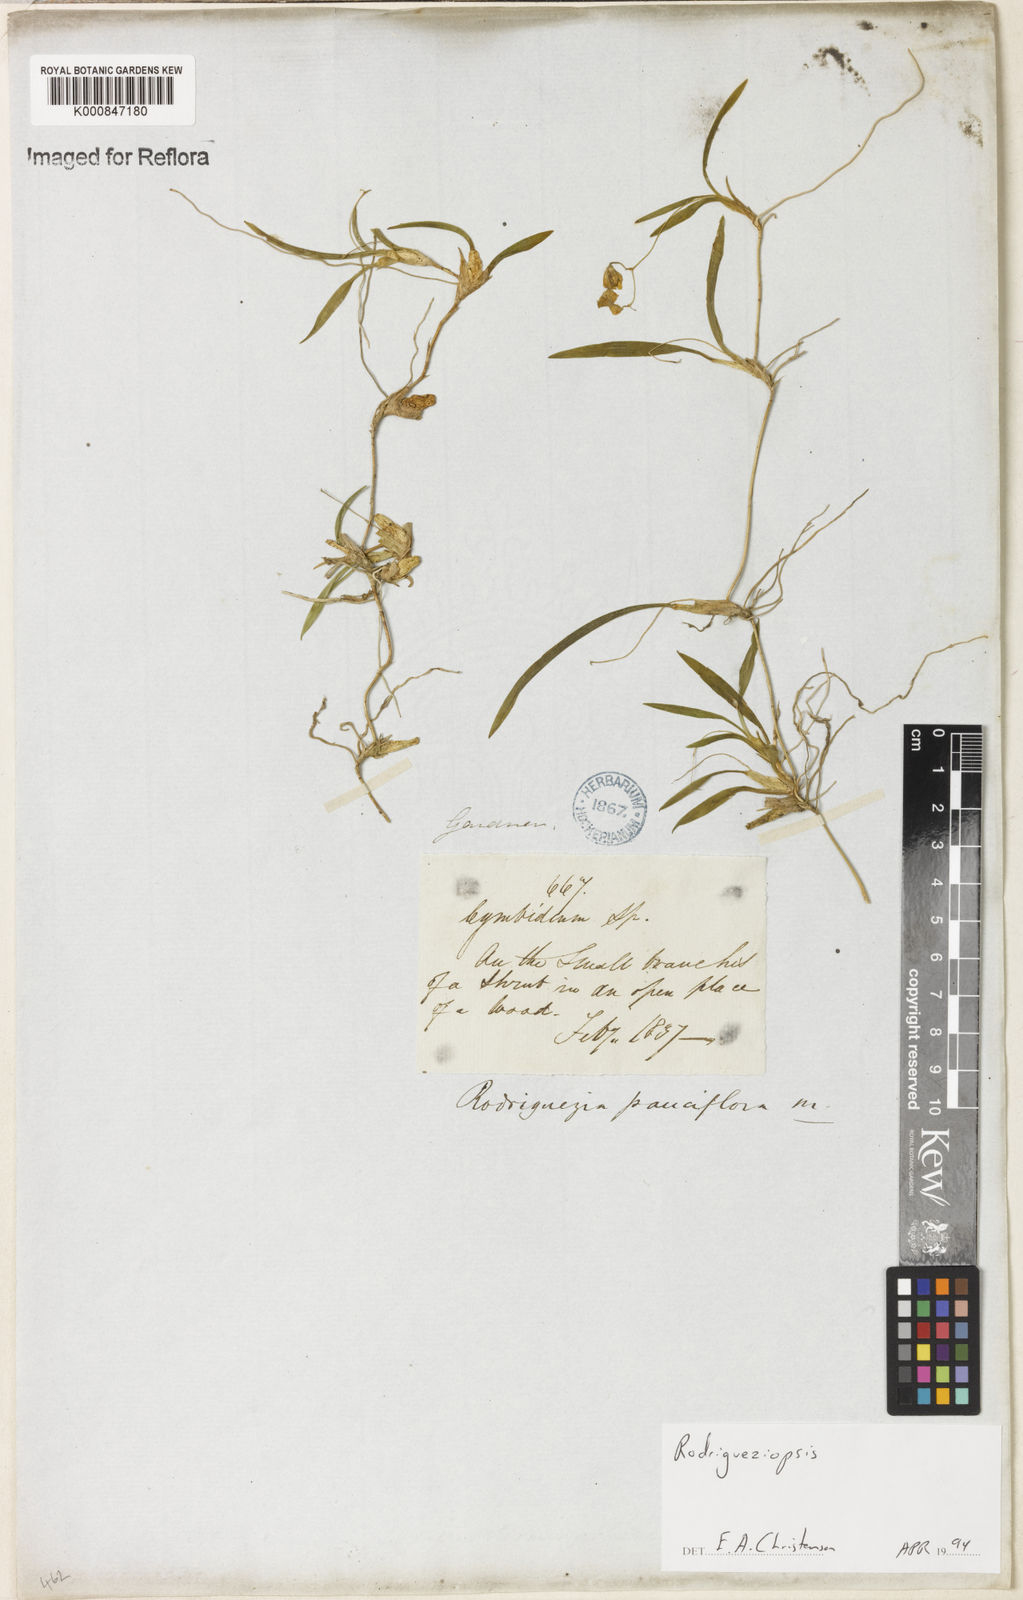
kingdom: Plantae
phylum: Tracheophyta
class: Liliopsida
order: Asparagales
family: Orchidaceae
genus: Gomesa
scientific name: Gomesa microphyta
